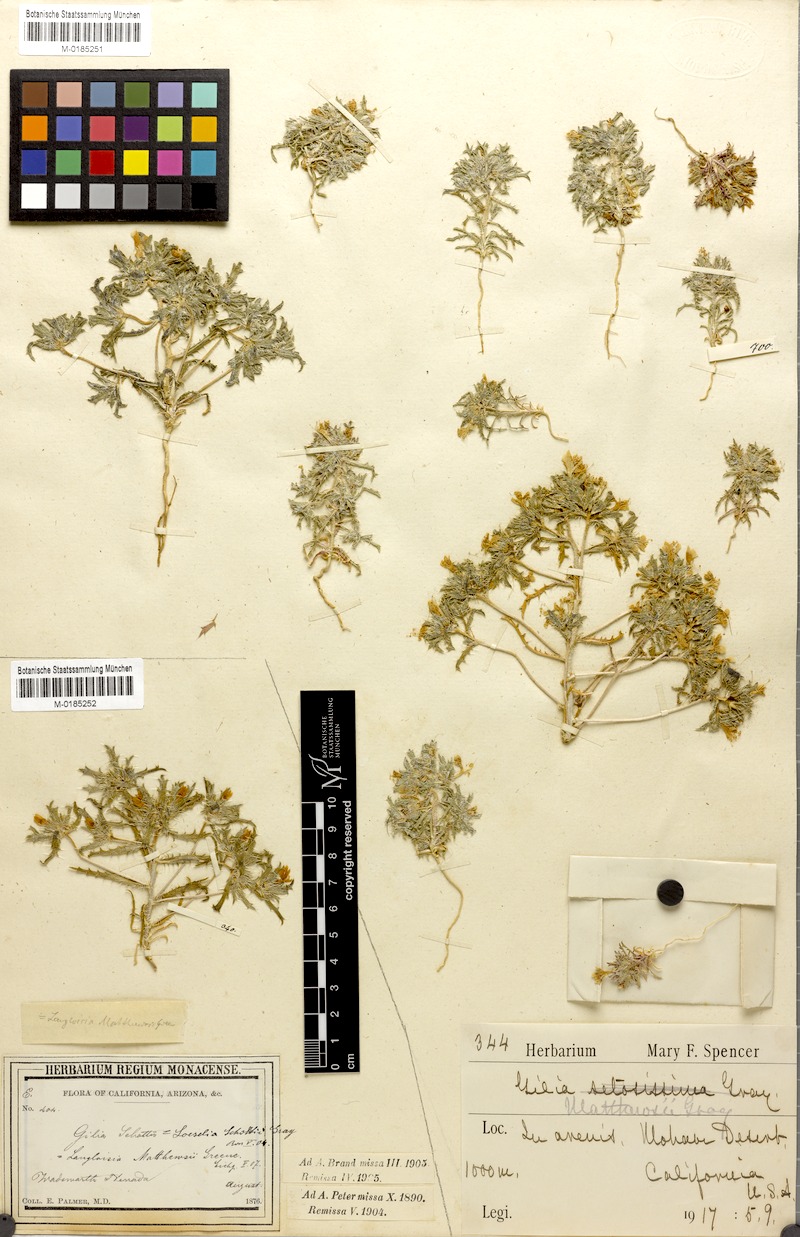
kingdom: Plantae
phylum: Tracheophyta
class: Magnoliopsida
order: Ericales
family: Polemoniaceae
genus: Loeseliastrum
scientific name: Loeseliastrum matthewsii
